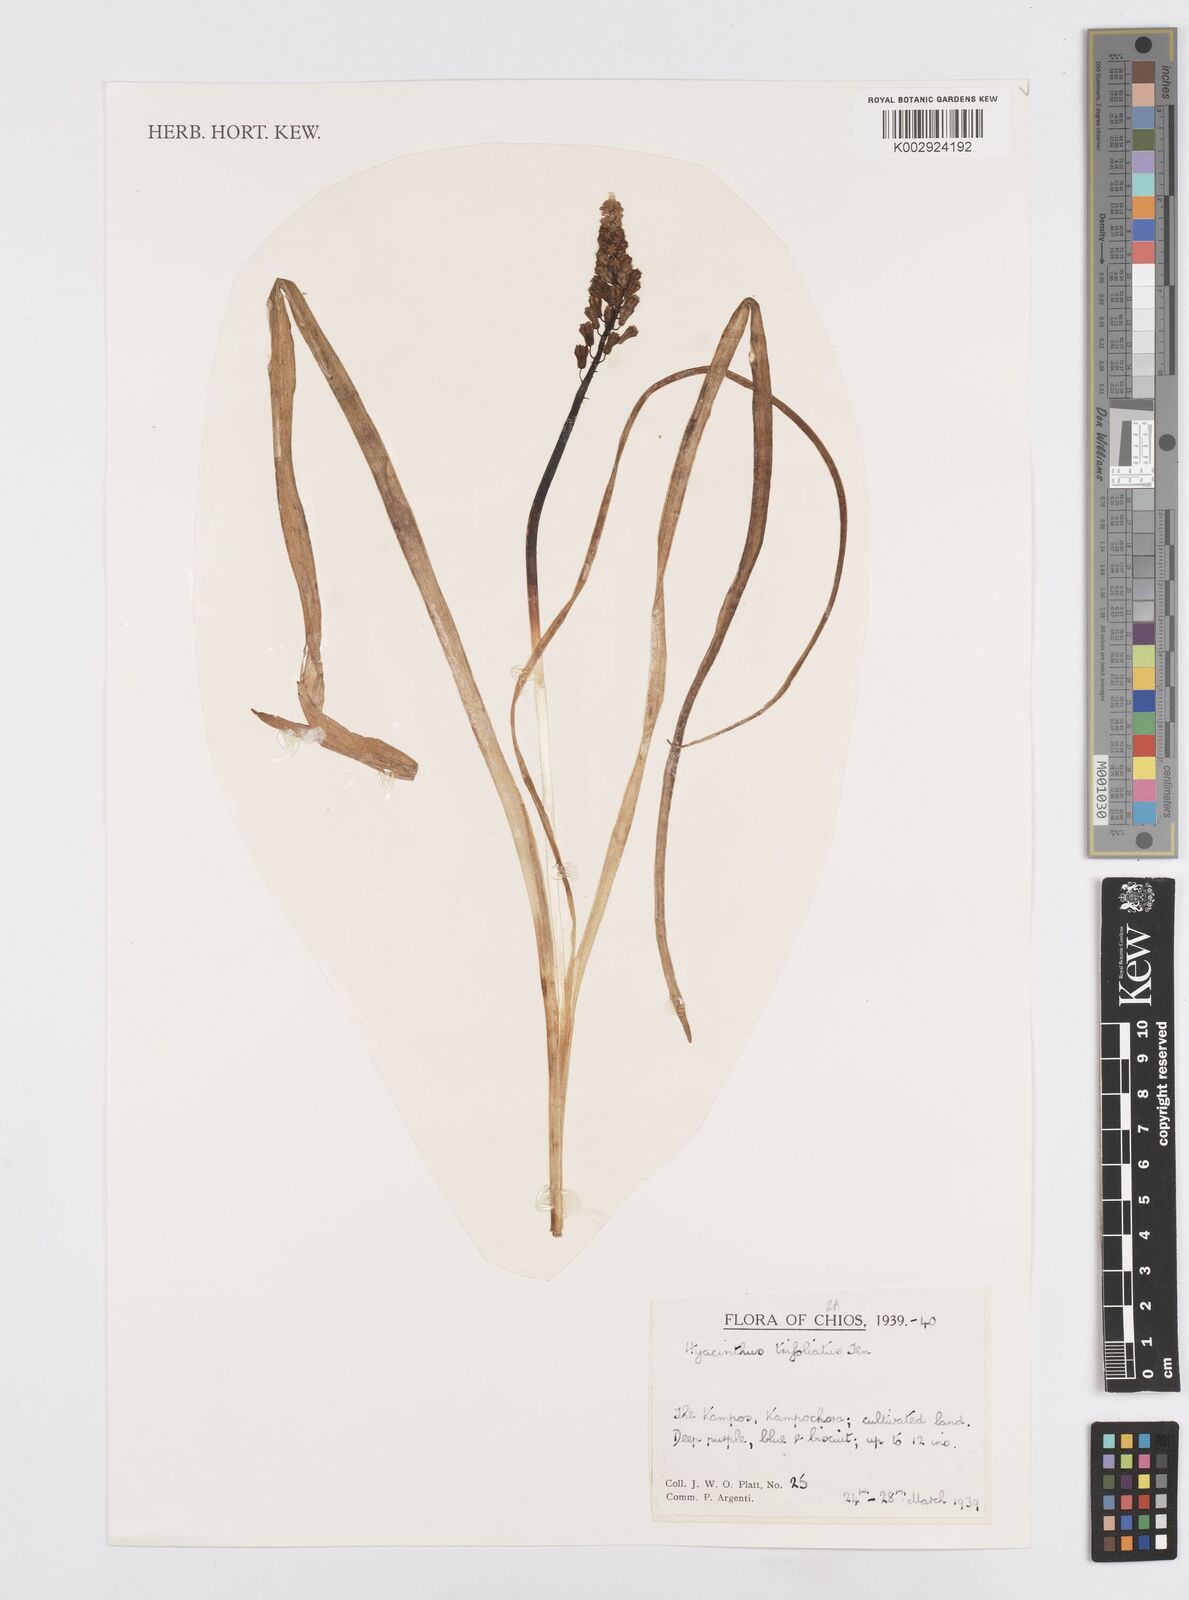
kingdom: Plantae
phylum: Tracheophyta
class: Liliopsida
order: Asparagales
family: Asparagaceae
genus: Bellevalia
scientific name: Bellevalia trifoliata
